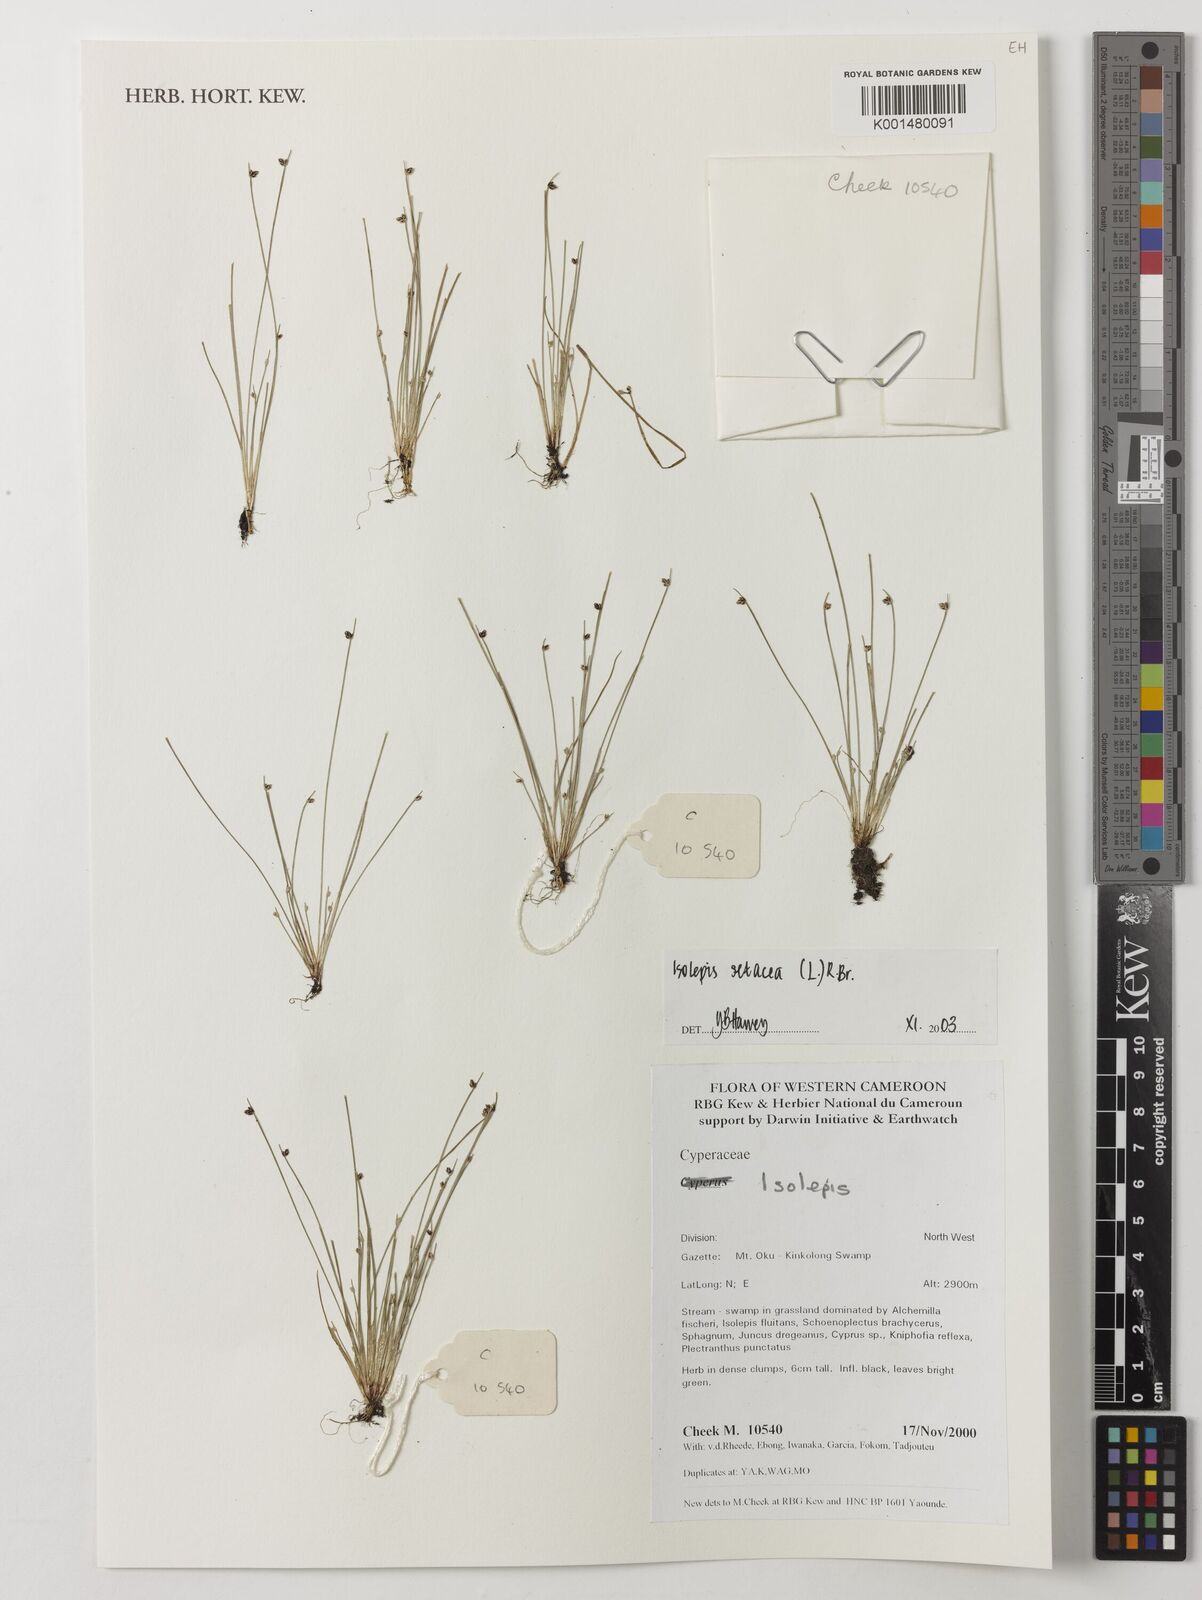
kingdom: Plantae
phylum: Tracheophyta
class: Liliopsida
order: Poales
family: Cyperaceae
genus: Isolepis
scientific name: Isolepis setacea
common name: Bristle club-rush
